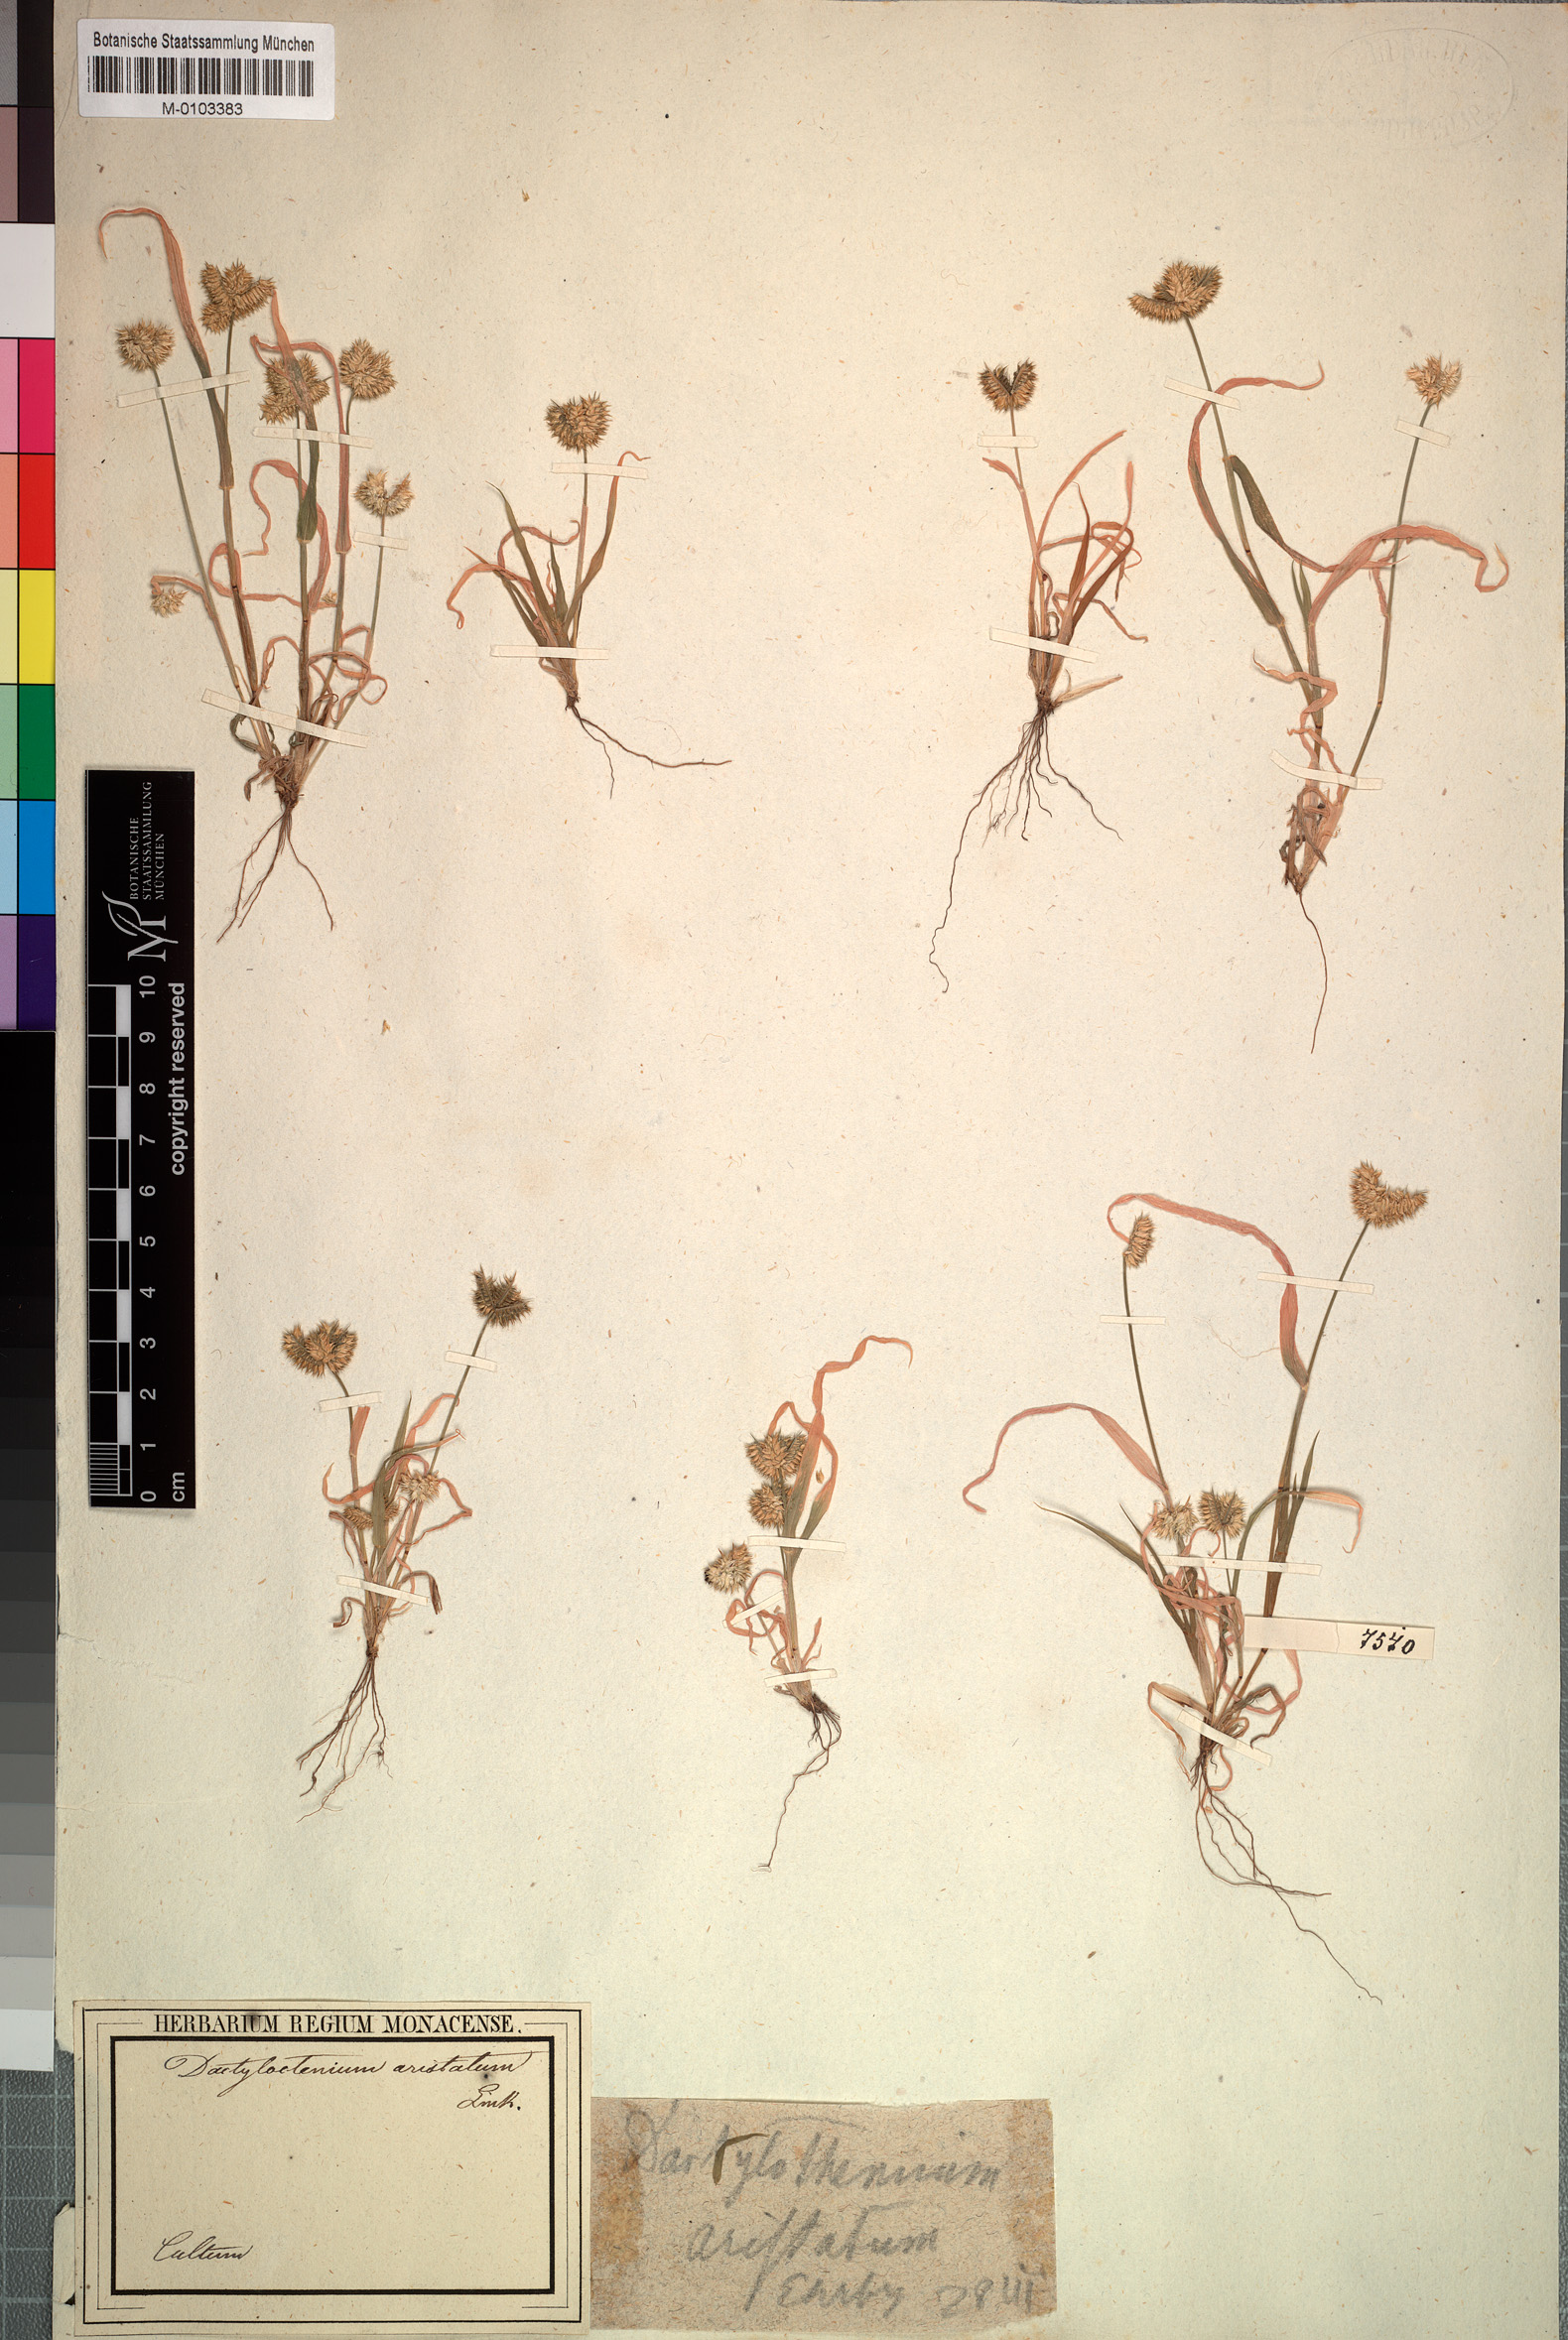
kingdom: Plantae
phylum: Tracheophyta
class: Liliopsida
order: Poales
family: Poaceae
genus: Dactyloctenium
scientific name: Dactyloctenium aristatum
